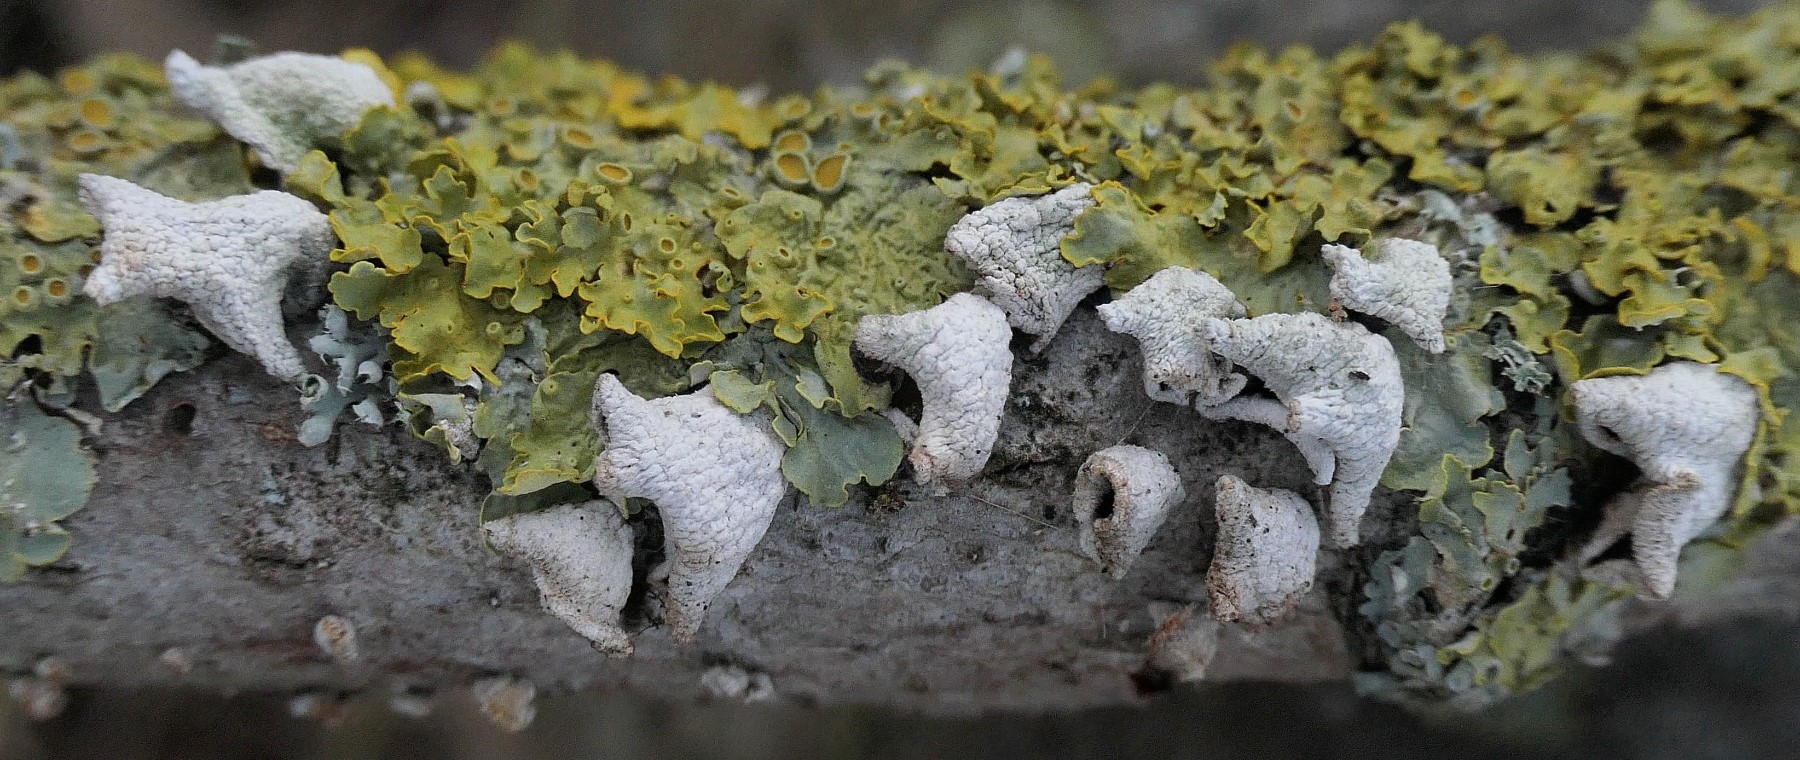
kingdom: Fungi
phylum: Basidiomycota
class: Agaricomycetes
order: Agaricales
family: Schizophyllaceae
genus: Schizophyllum
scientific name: Schizophyllum amplum
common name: poppel-hængeøre
